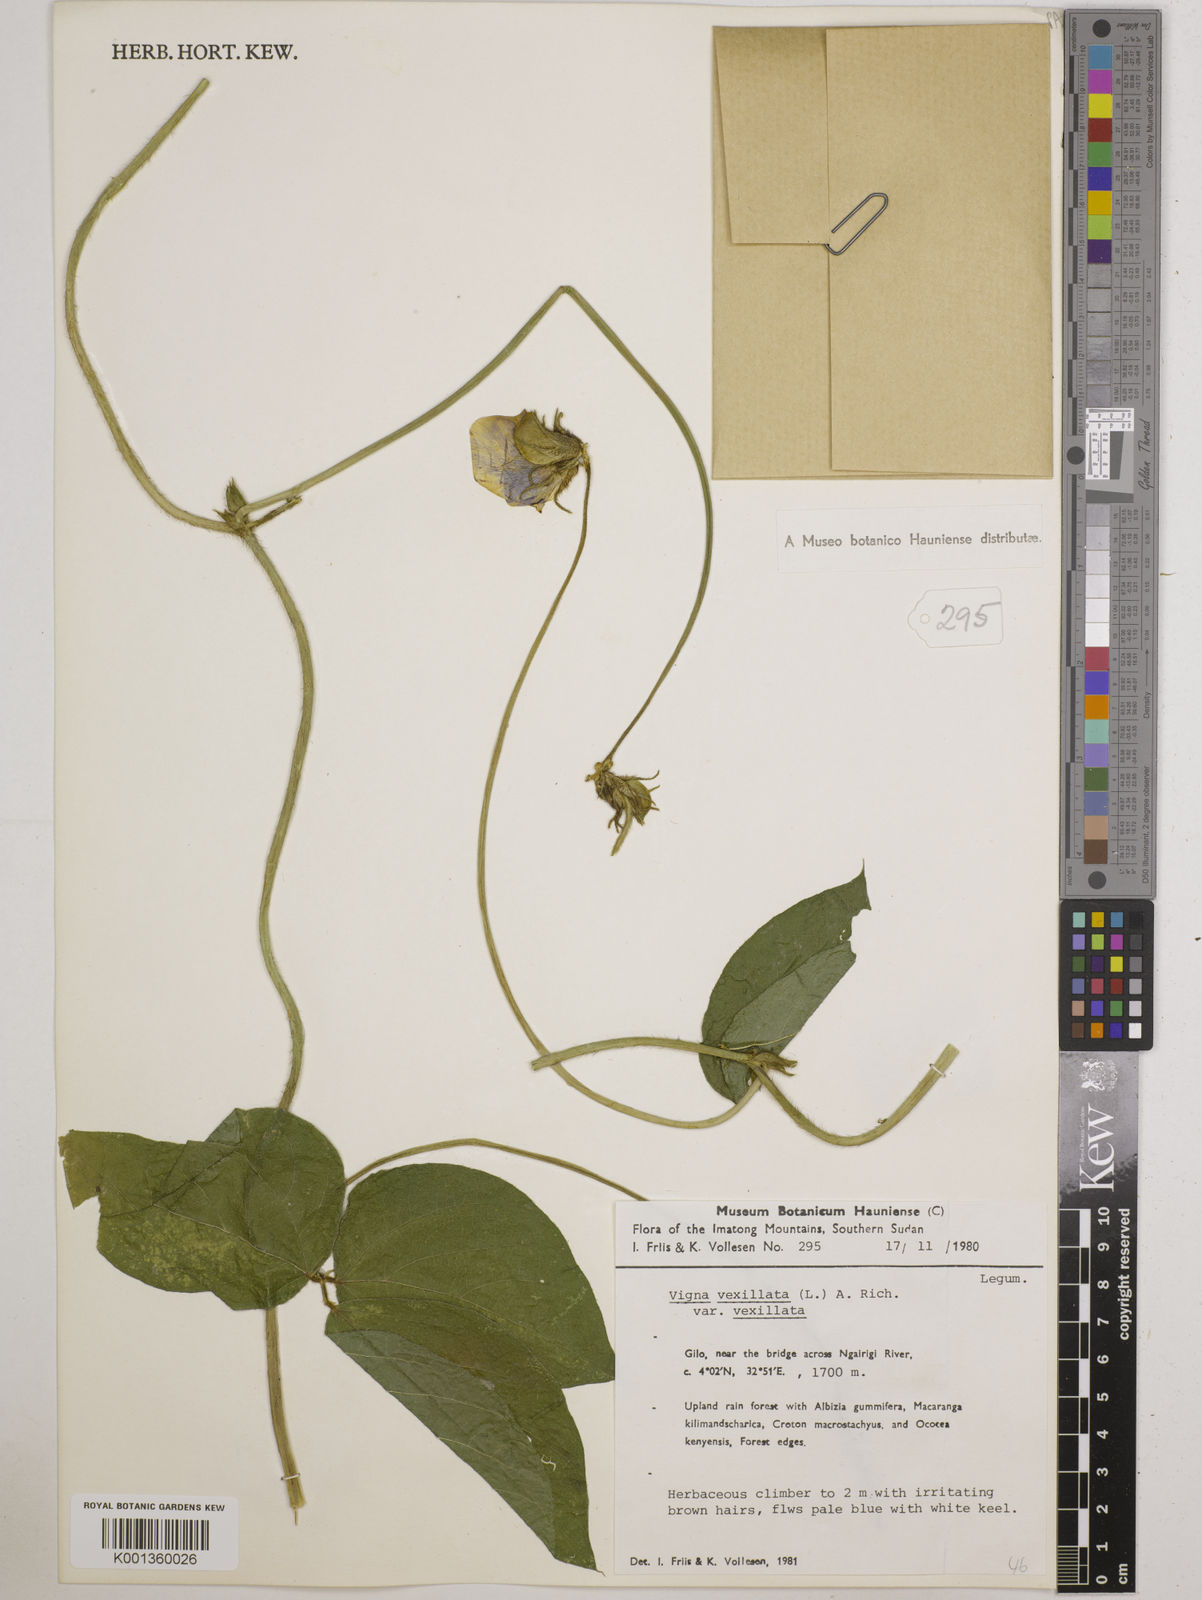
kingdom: Plantae
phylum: Tracheophyta
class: Magnoliopsida
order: Fabales
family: Fabaceae
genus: Vigna
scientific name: Vigna vexillata
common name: Zombi pea
